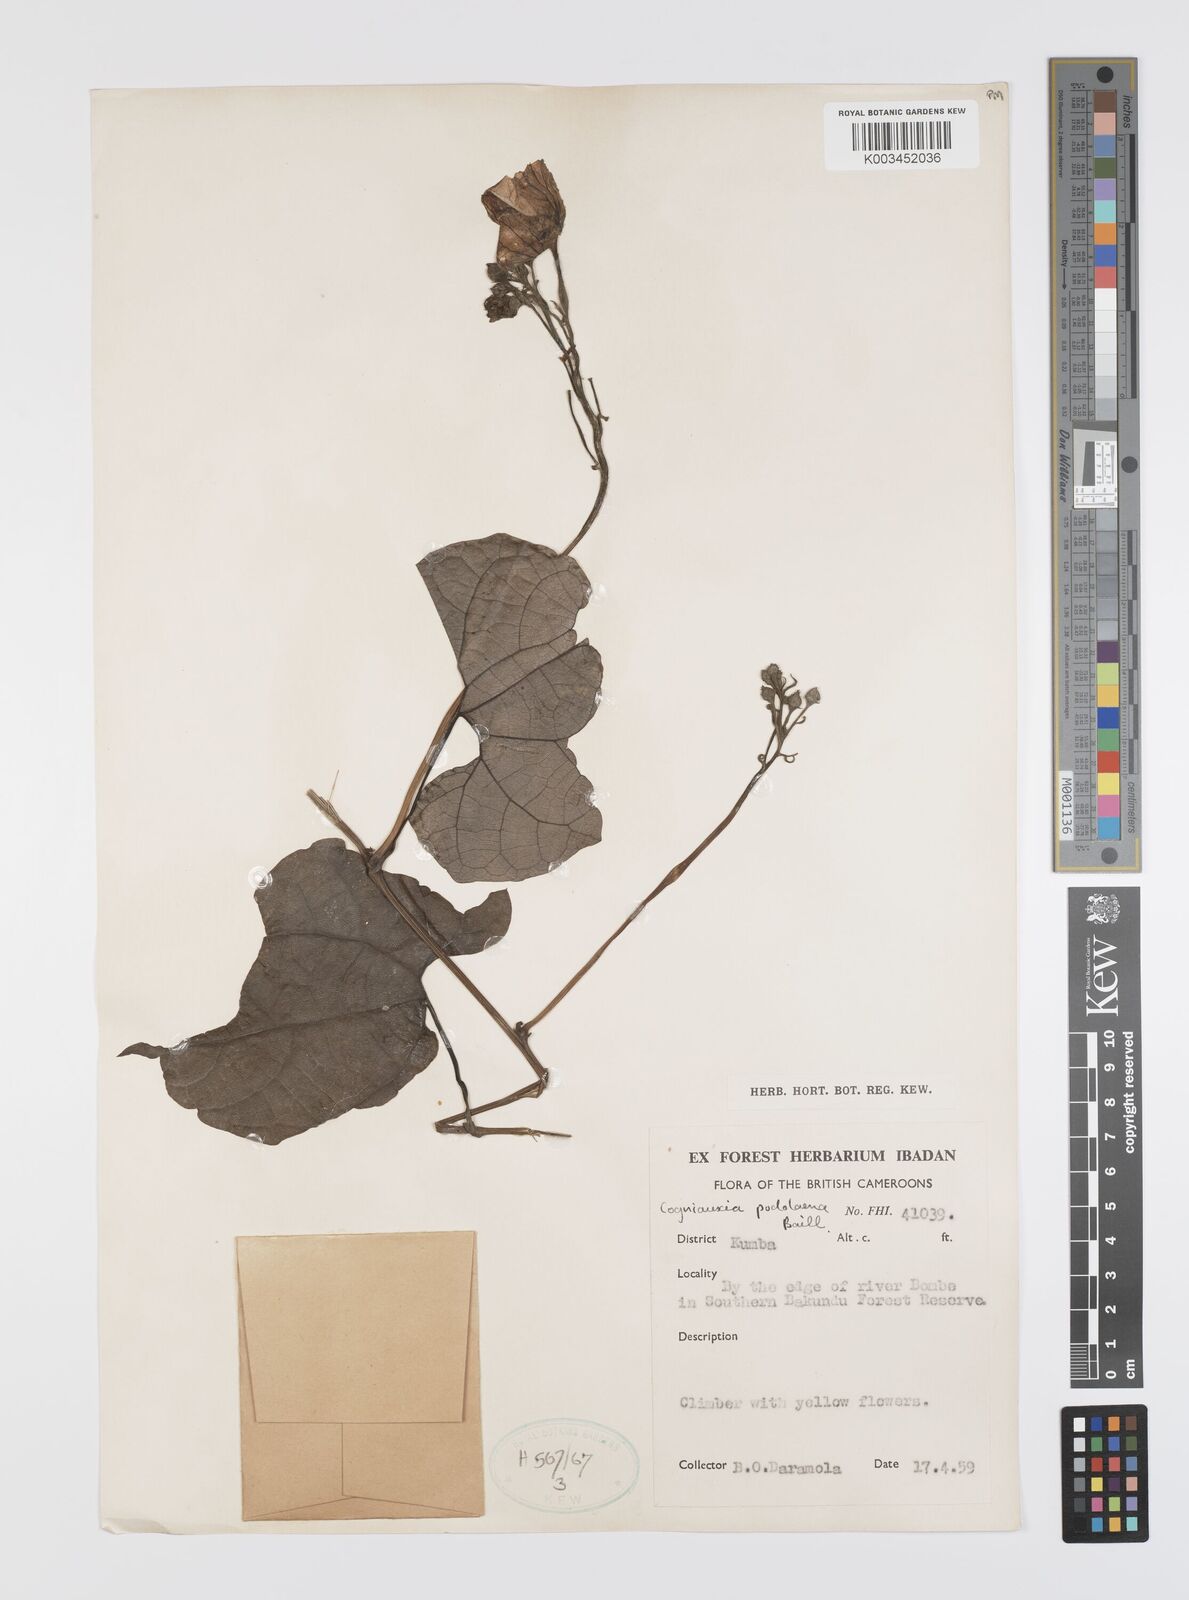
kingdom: Plantae
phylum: Tracheophyta
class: Magnoliopsida
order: Cucurbitales
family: Cucurbitaceae
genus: Cogniauxia
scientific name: Cogniauxia podolaena
